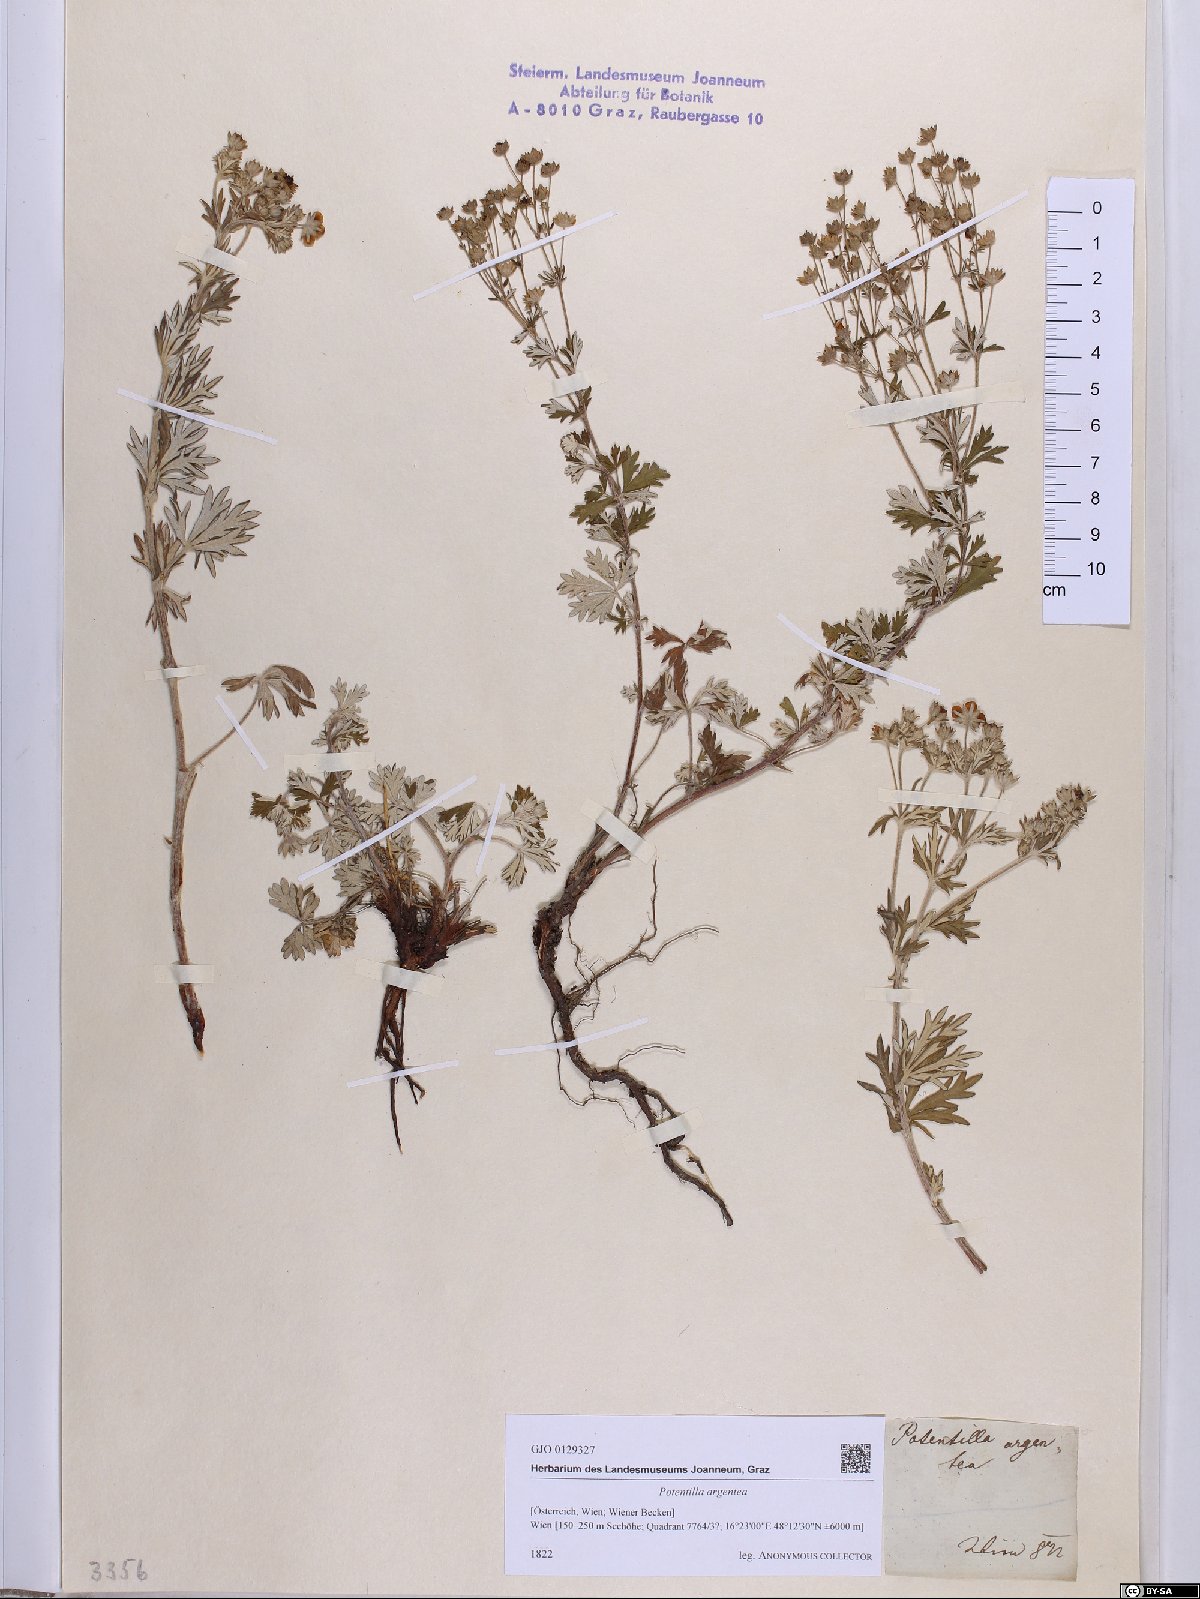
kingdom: Plantae
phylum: Tracheophyta
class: Magnoliopsida
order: Rosales
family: Rosaceae
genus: Potentilla
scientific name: Potentilla argentea
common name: Hoary cinquefoil
